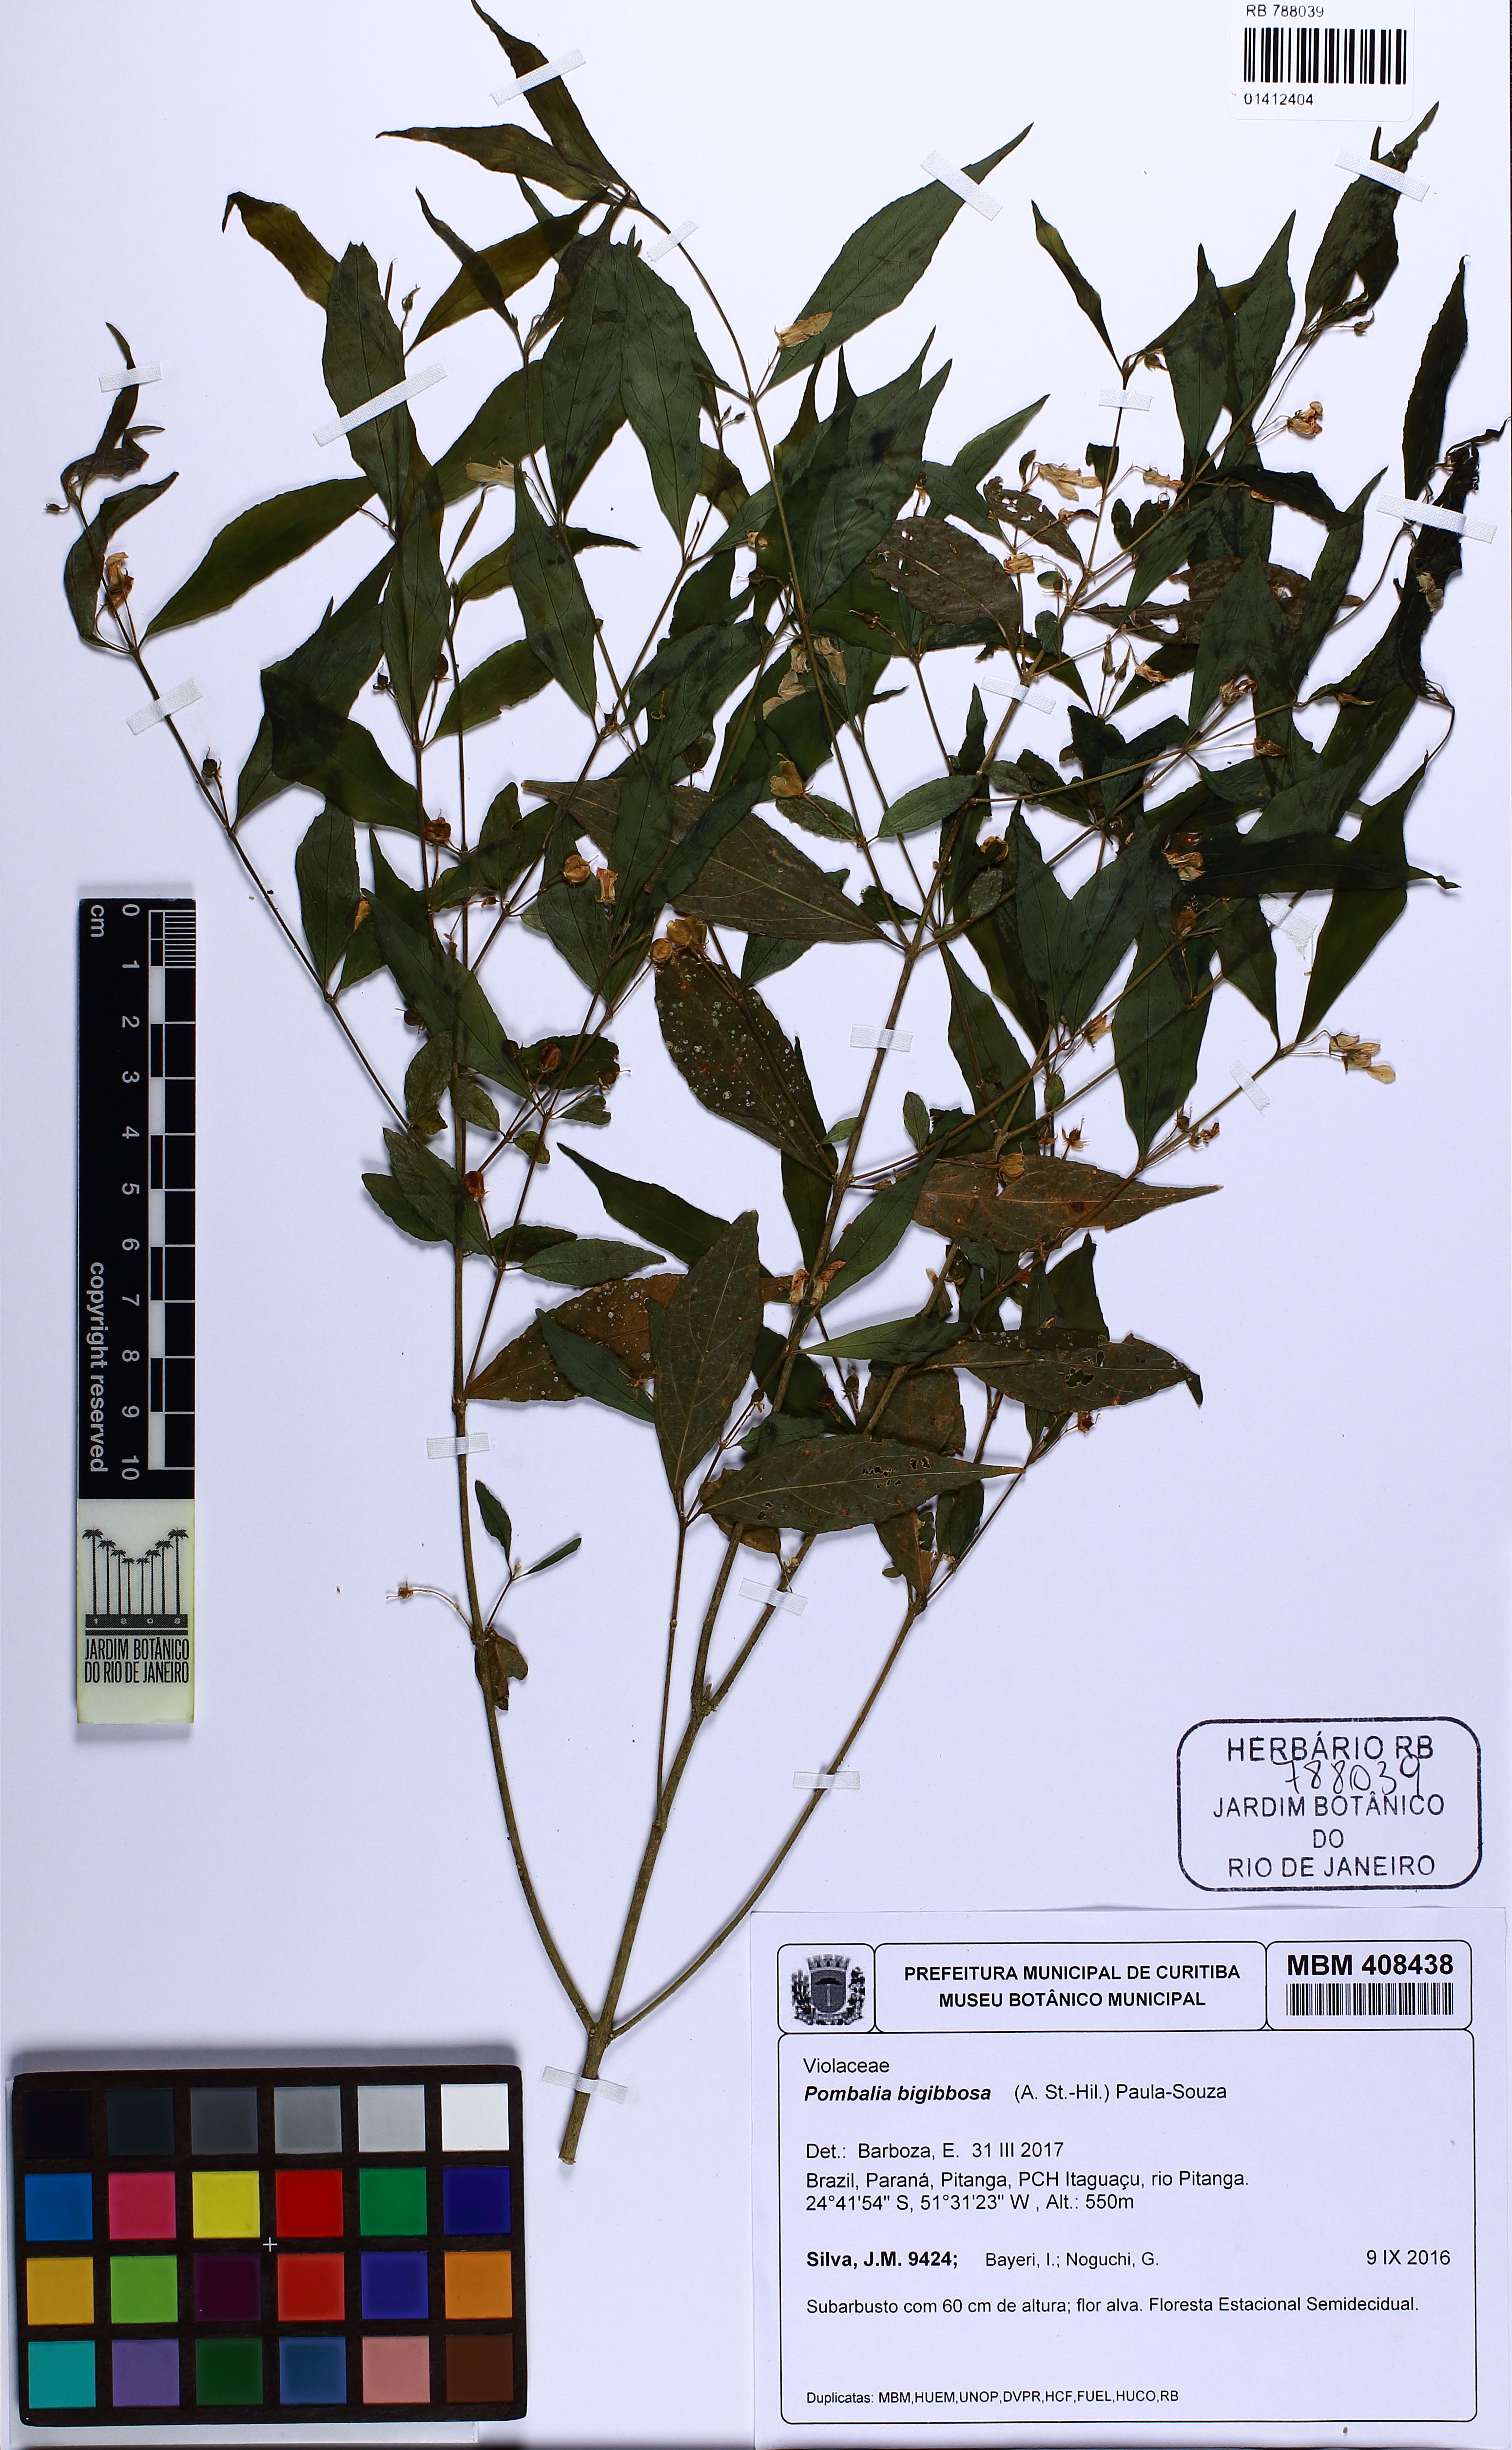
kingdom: Plantae
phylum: Tracheophyta
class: Magnoliopsida
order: Malpighiales
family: Violaceae
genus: Pombalia
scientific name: Pombalia bigibbosa
